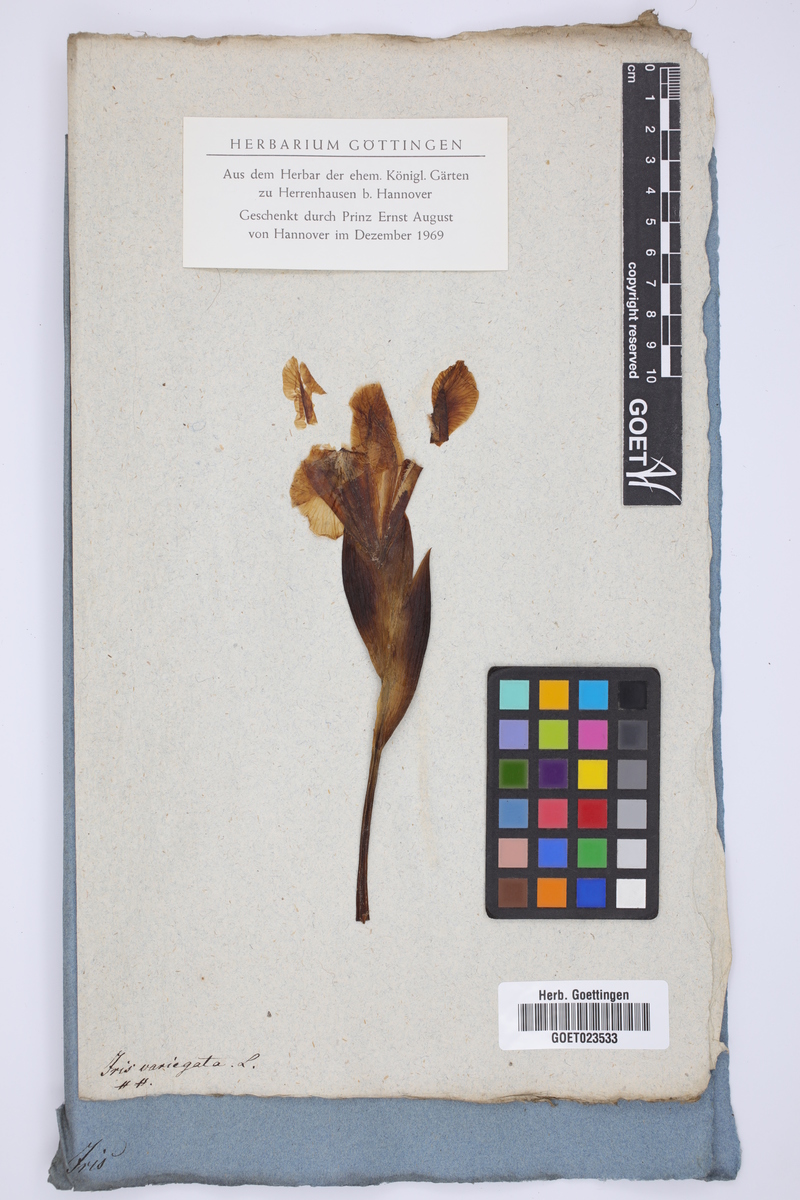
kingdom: Plantae
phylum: Tracheophyta
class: Liliopsida
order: Asparagales
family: Iridaceae
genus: Iris
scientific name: Iris variegata
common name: Hungarian iris
